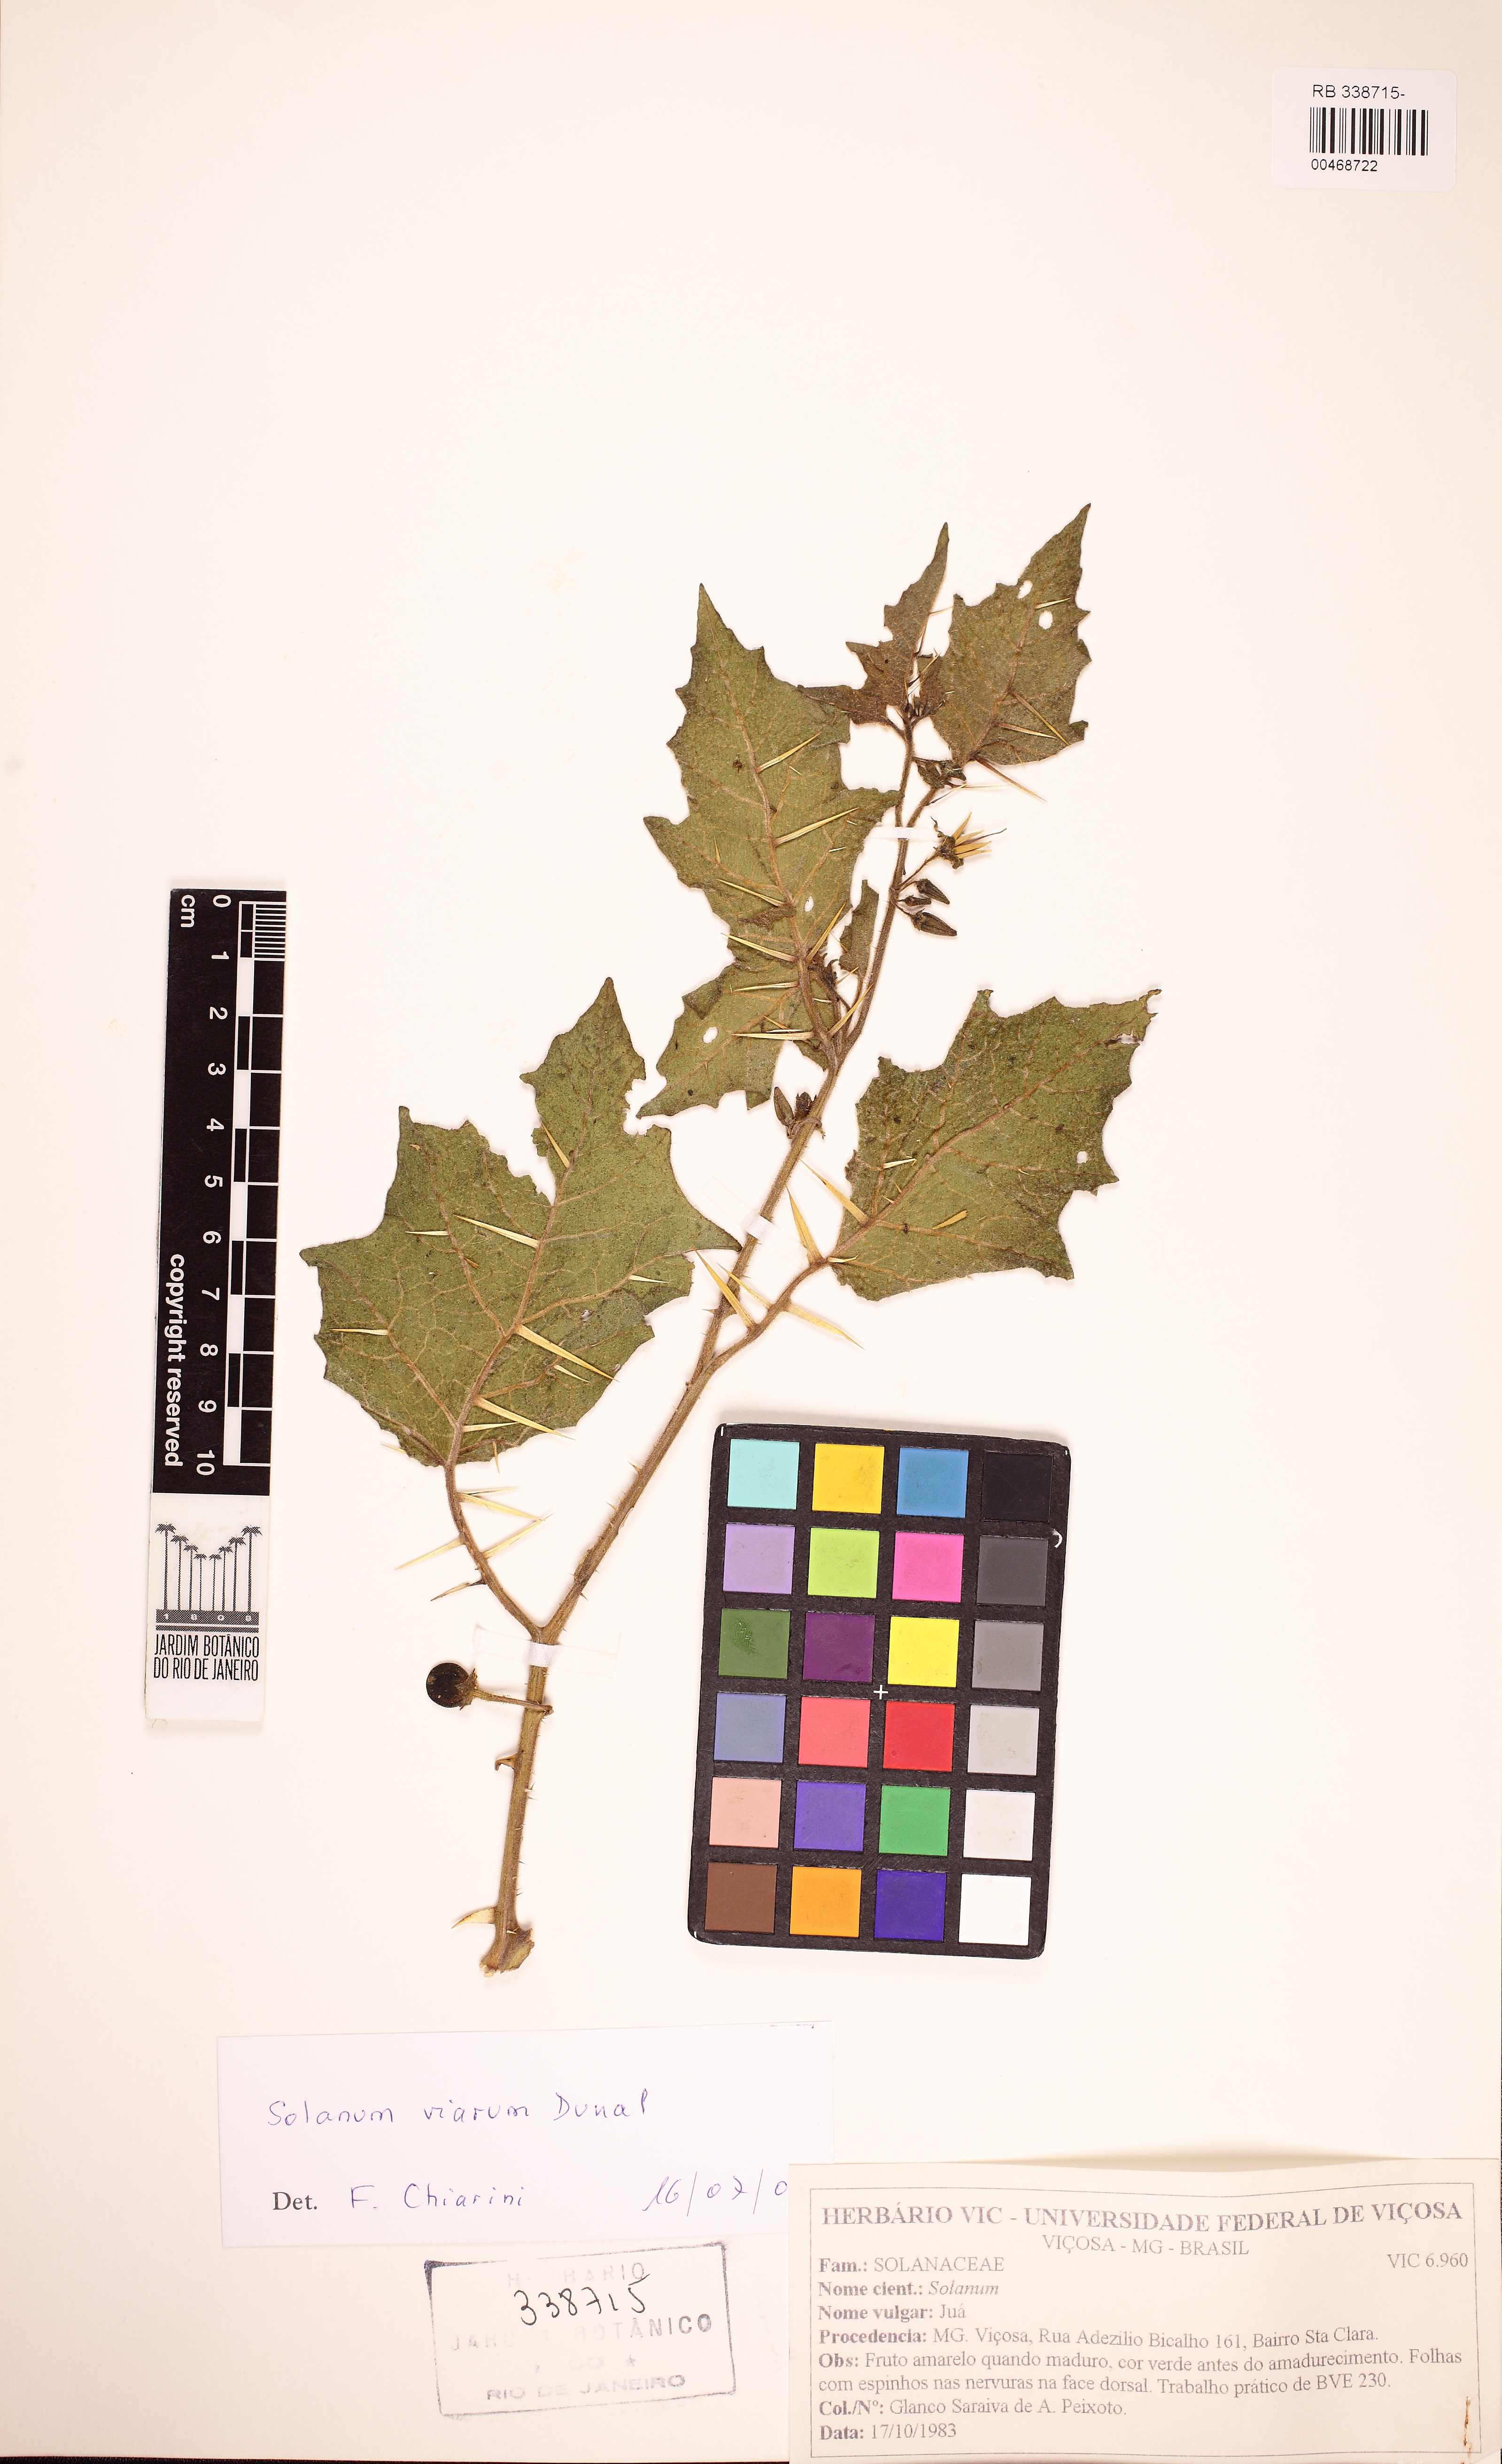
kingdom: Plantae
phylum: Tracheophyta
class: Magnoliopsida
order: Solanales
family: Solanaceae
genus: Solanum
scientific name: Solanum viarum
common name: Tropical soda apple
